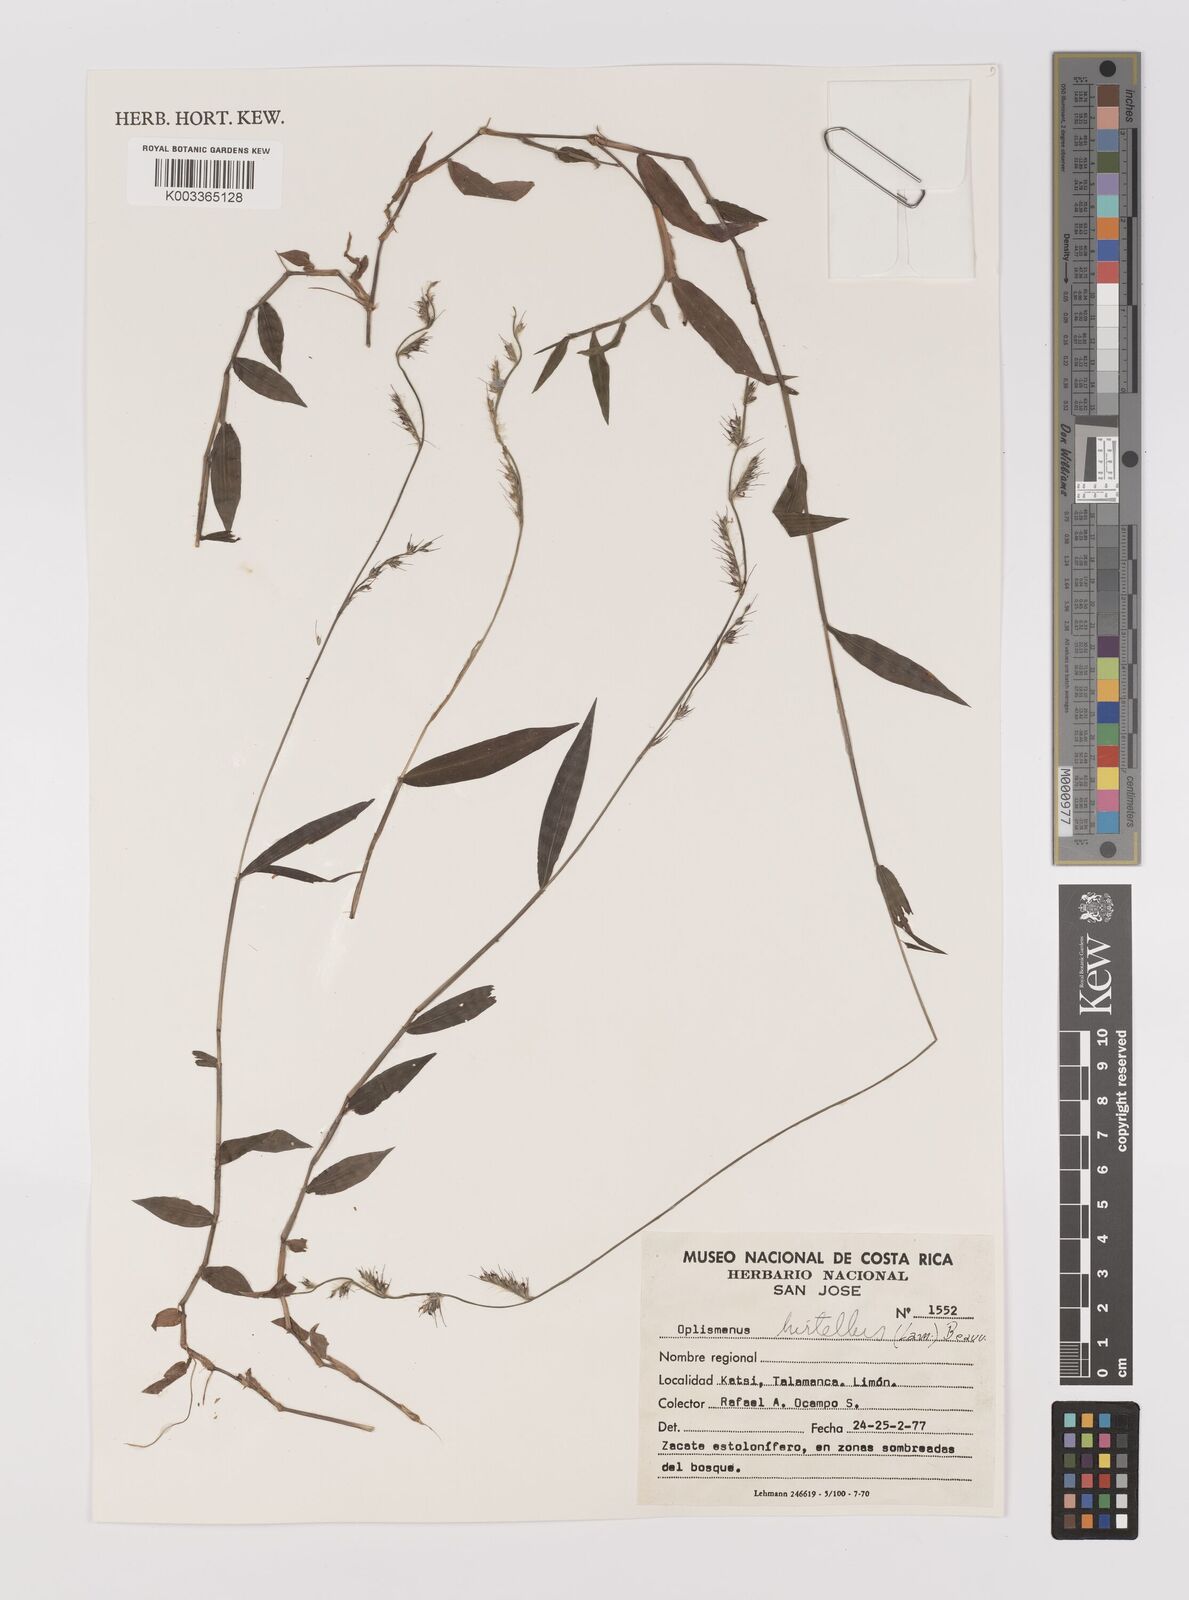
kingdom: Plantae
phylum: Tracheophyta
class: Liliopsida
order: Poales
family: Poaceae
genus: Oplismenus
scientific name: Oplismenus hirtellus
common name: Basketgrass
